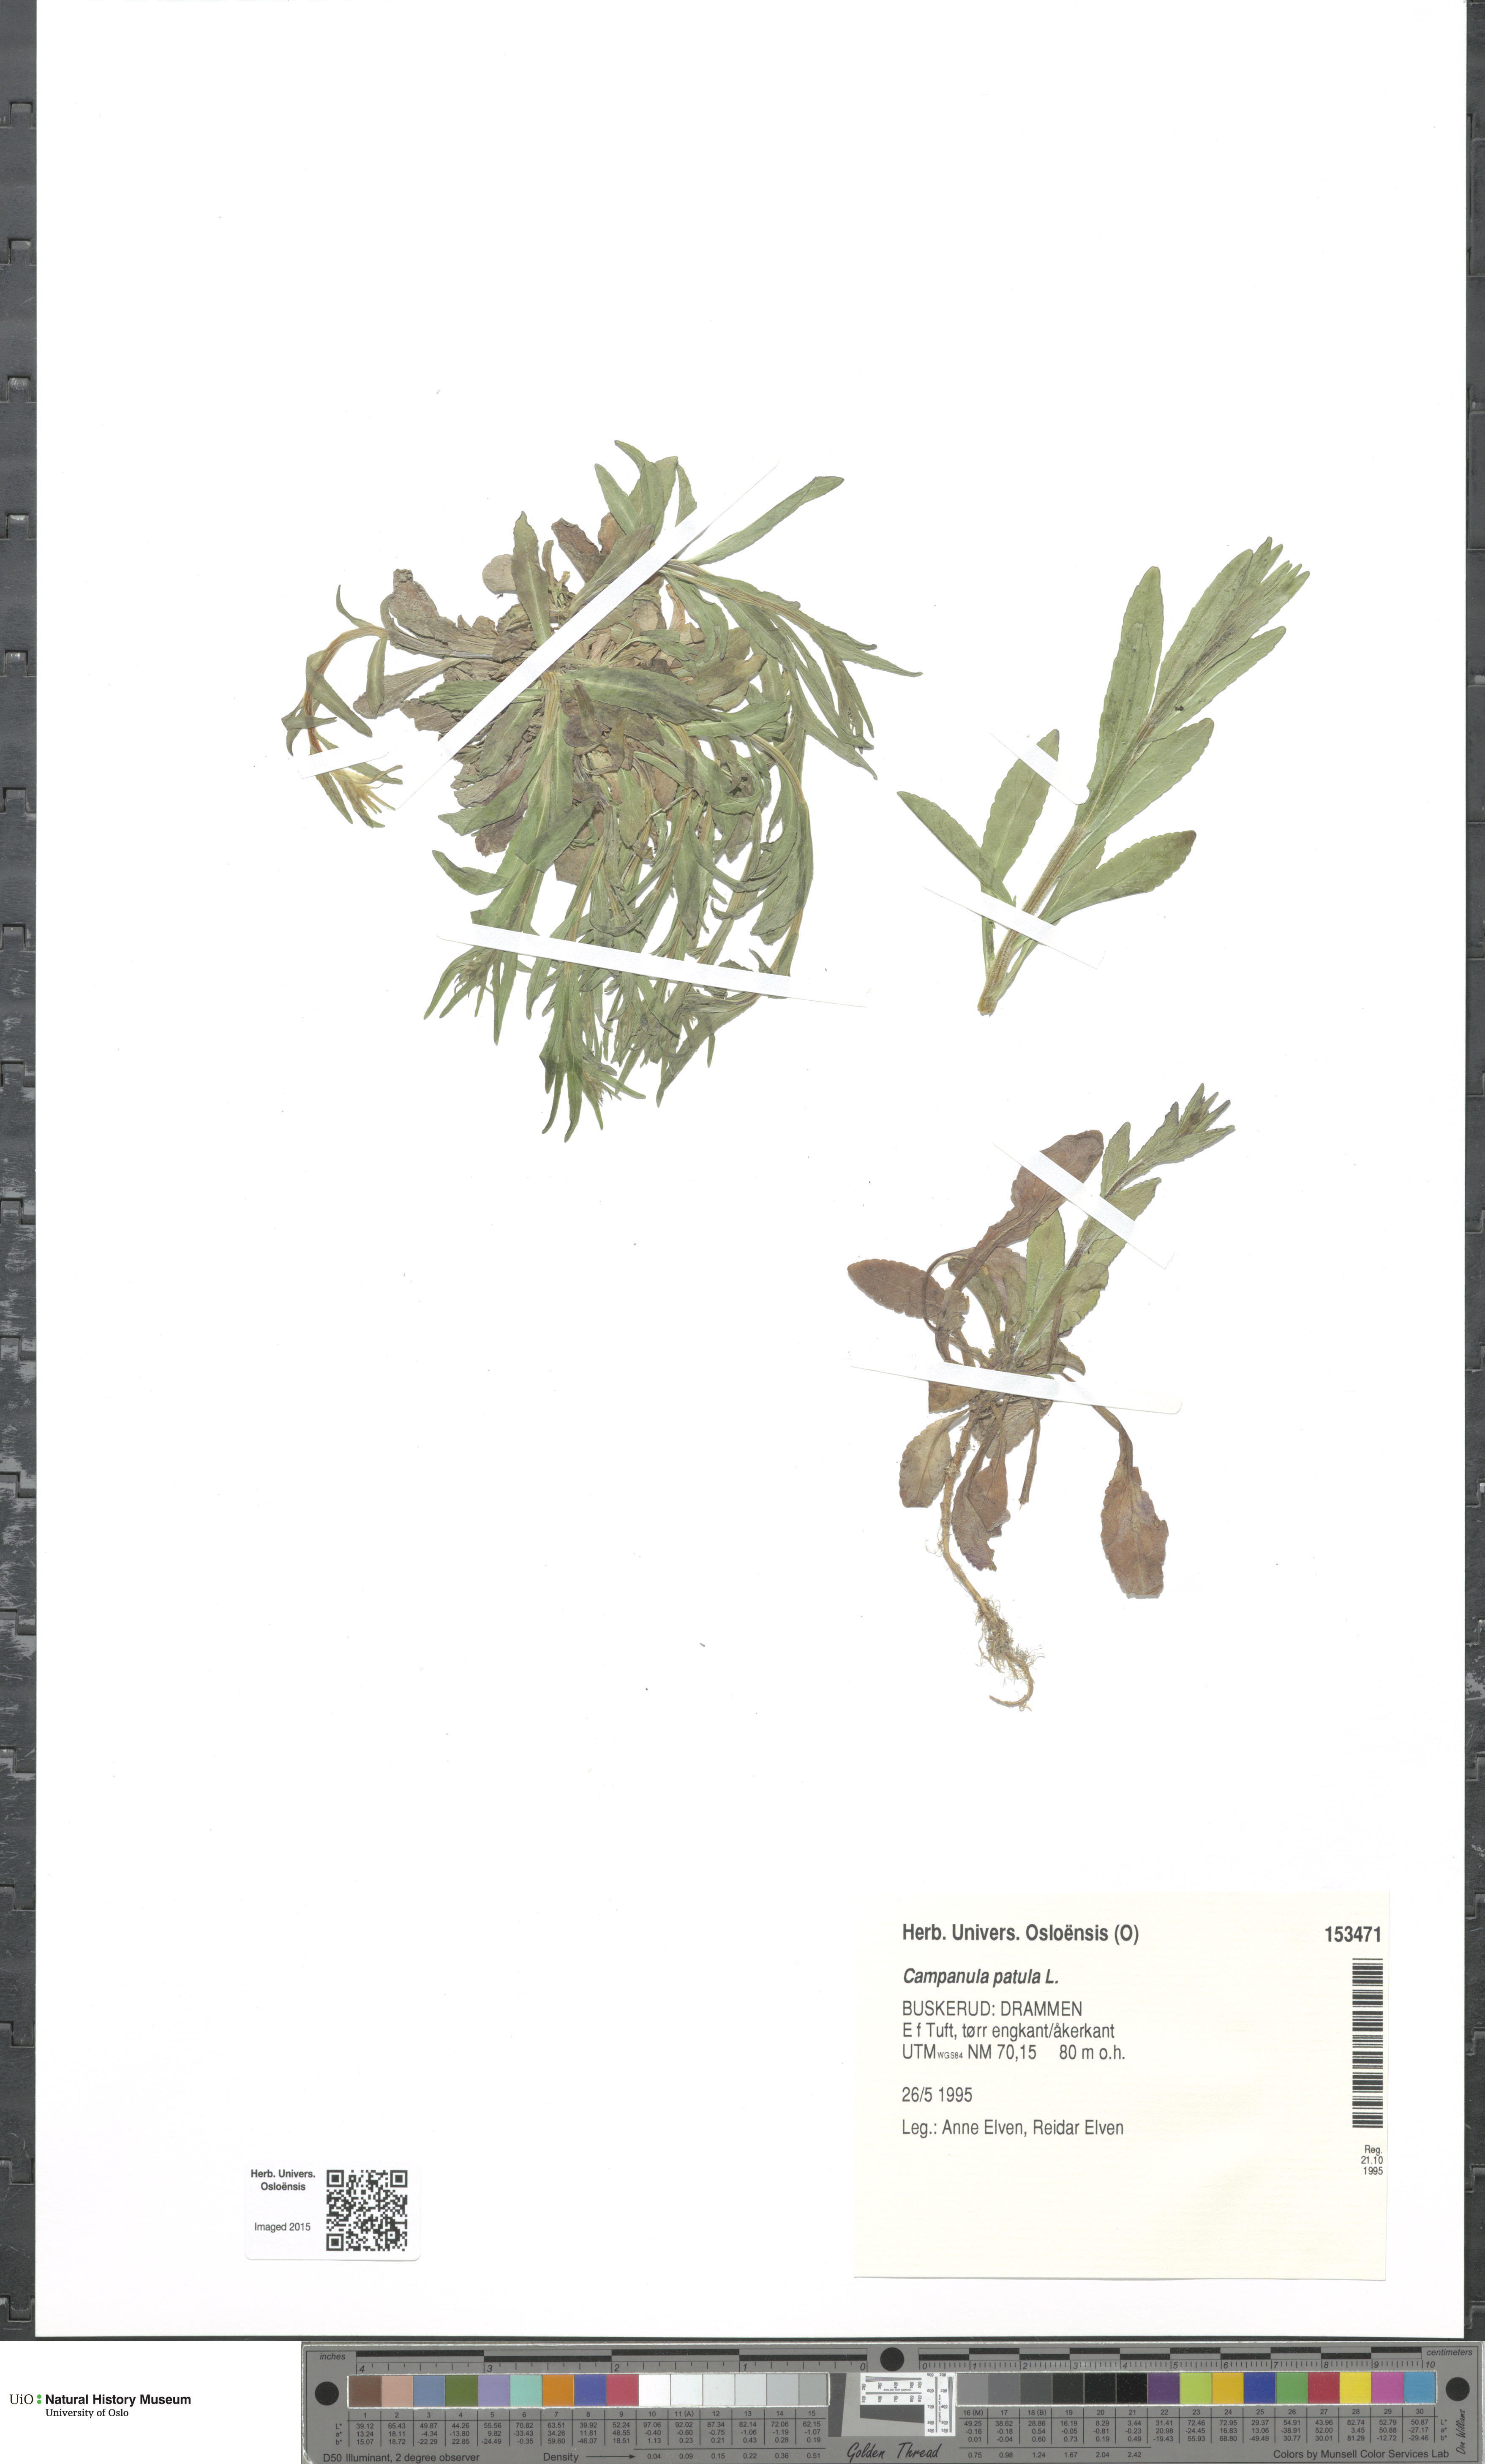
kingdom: Plantae
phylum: Tracheophyta
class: Magnoliopsida
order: Asterales
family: Campanulaceae
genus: Campanula
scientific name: Campanula patula
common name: Spreading bellflower
